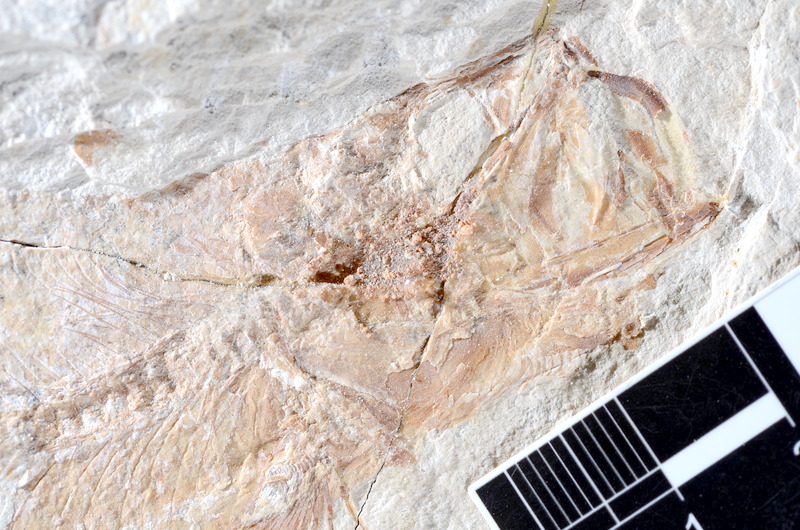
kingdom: Animalia
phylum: Chordata
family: Ascalaboidae
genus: Tharsis
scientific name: Tharsis dubius
